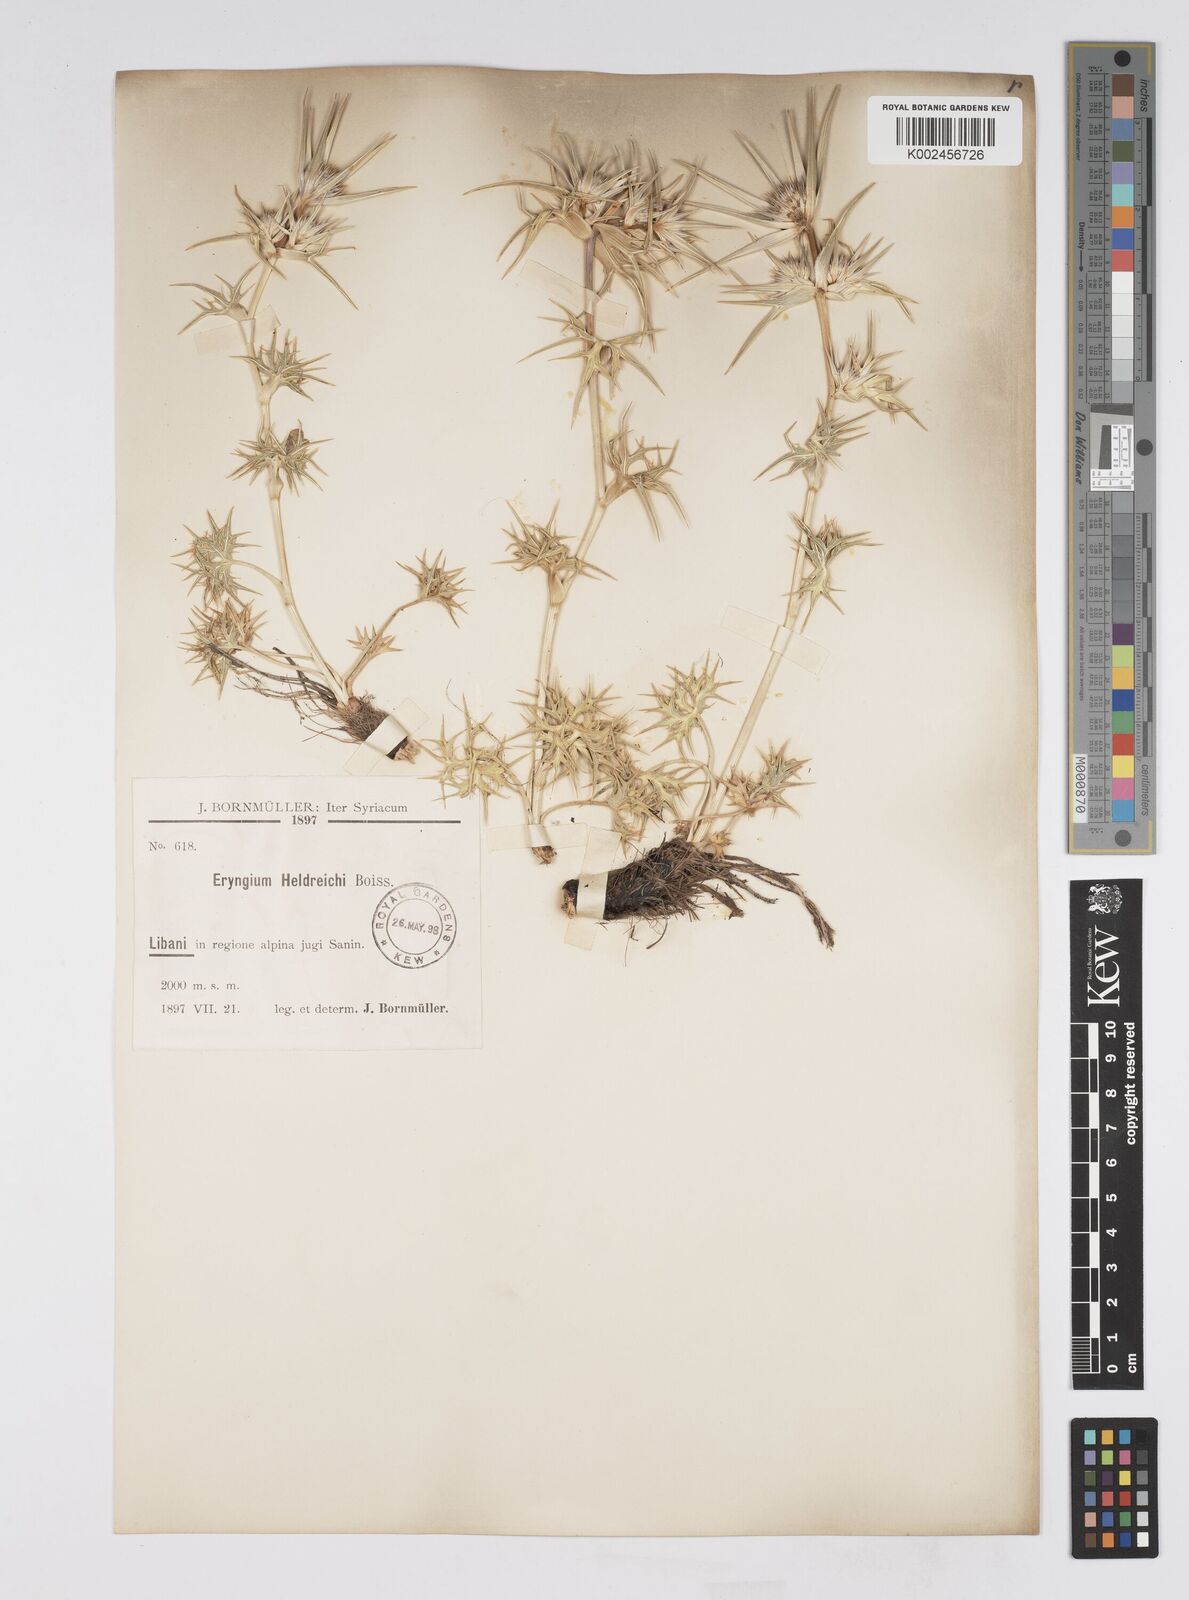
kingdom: Plantae
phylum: Tracheophyta
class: Magnoliopsida
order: Apiales
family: Apiaceae
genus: Eryngium
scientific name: Eryngium heldreichii
